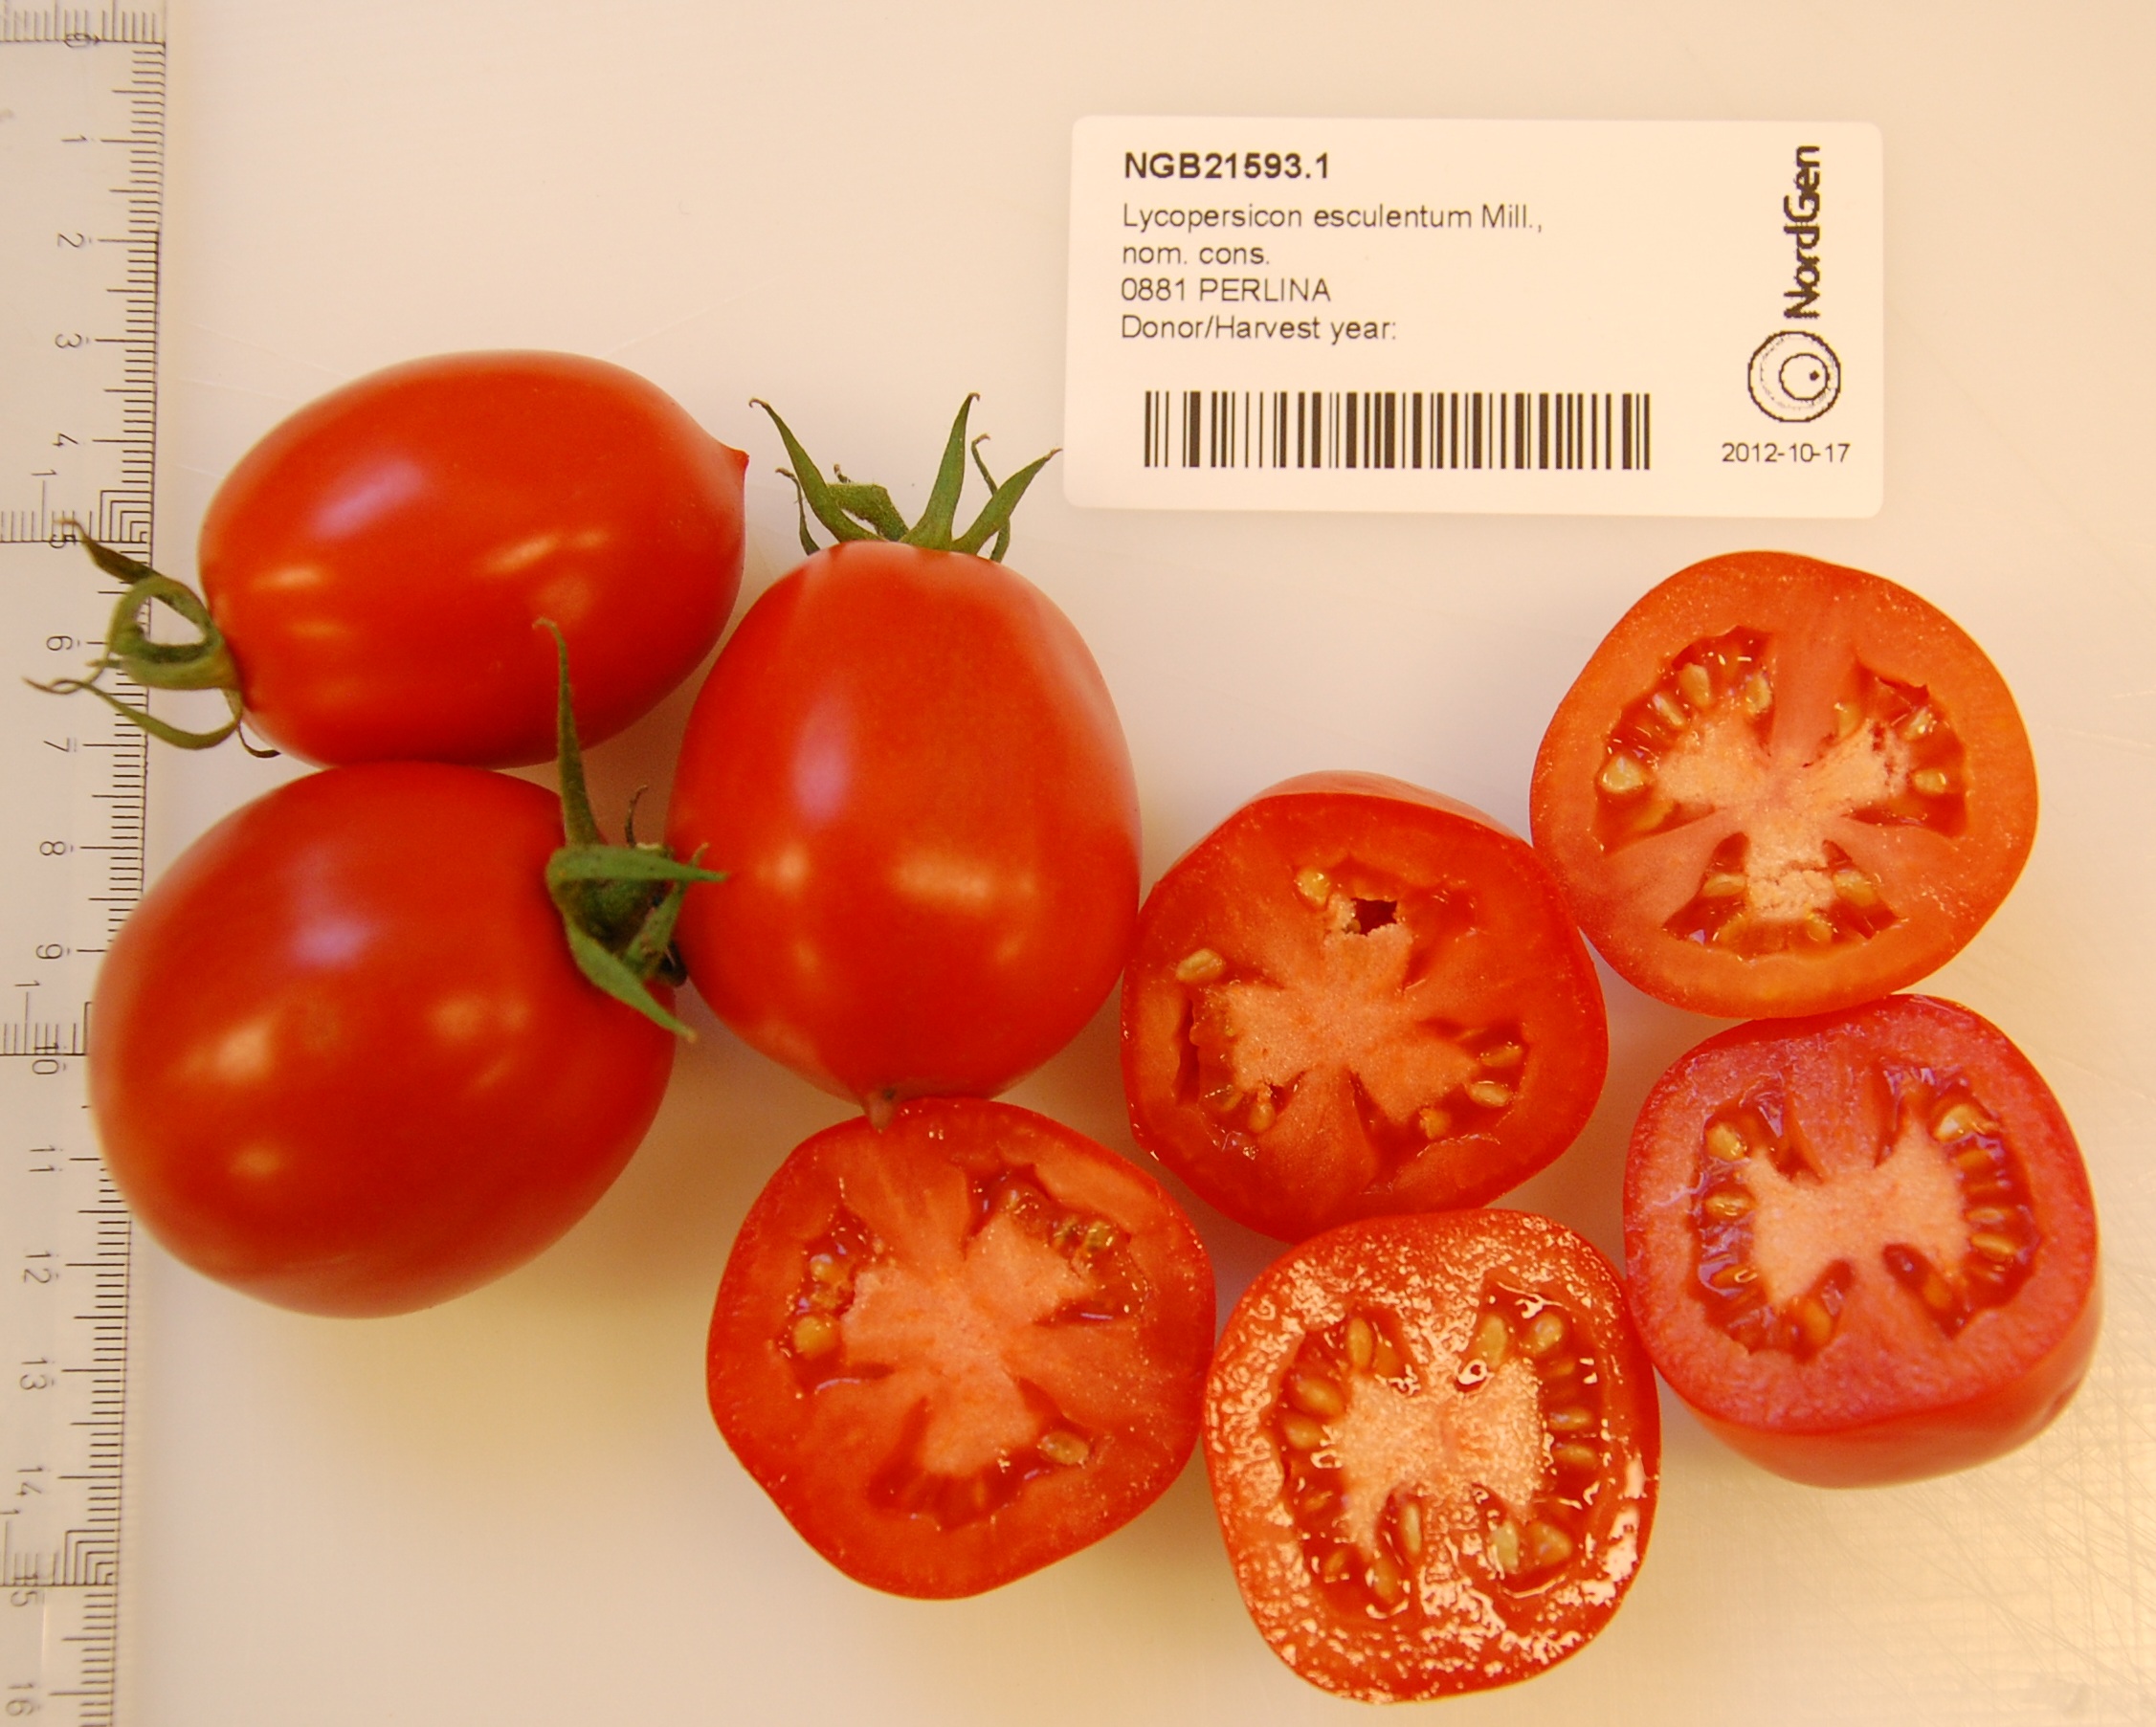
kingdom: Plantae
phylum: Tracheophyta
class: Magnoliopsida
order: Solanales
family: Solanaceae
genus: Solanum
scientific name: Solanum lycopersicum
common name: Garden tomato
